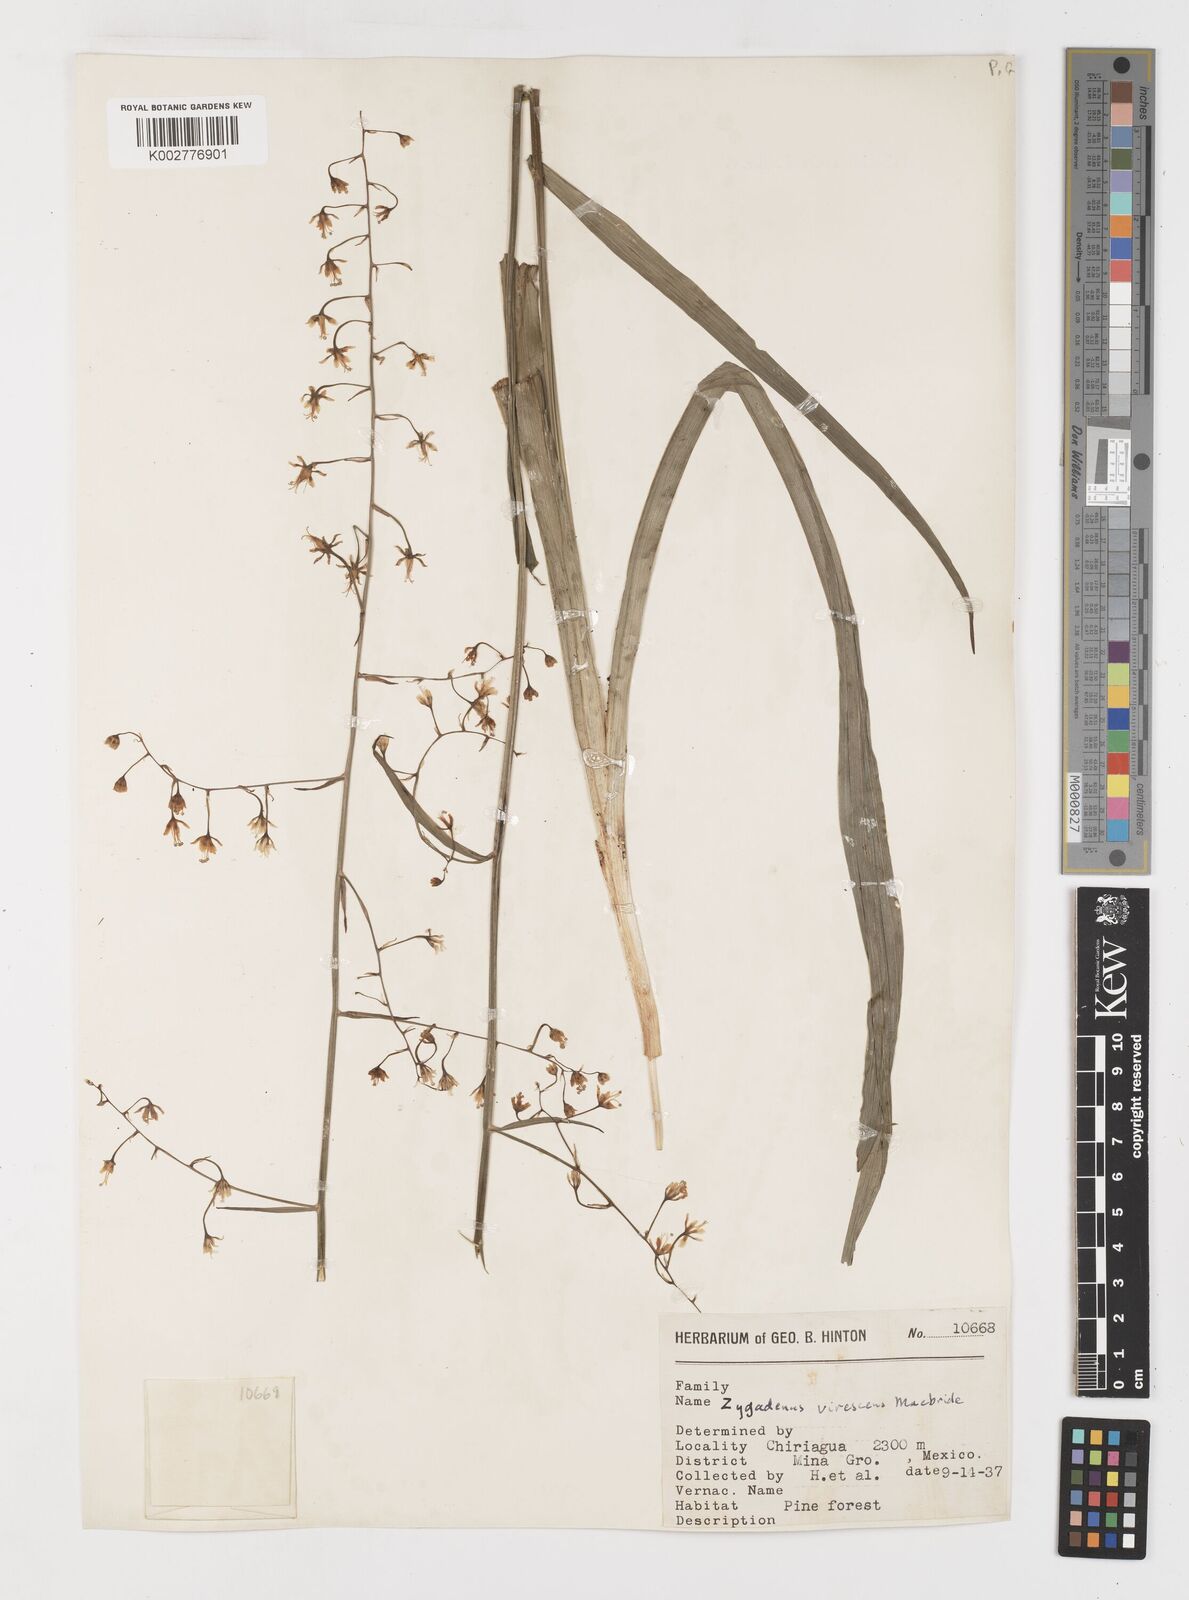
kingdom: Plantae
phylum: Tracheophyta
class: Liliopsida
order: Liliales
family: Melanthiaceae
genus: Anticlea
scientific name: Anticlea virescens
